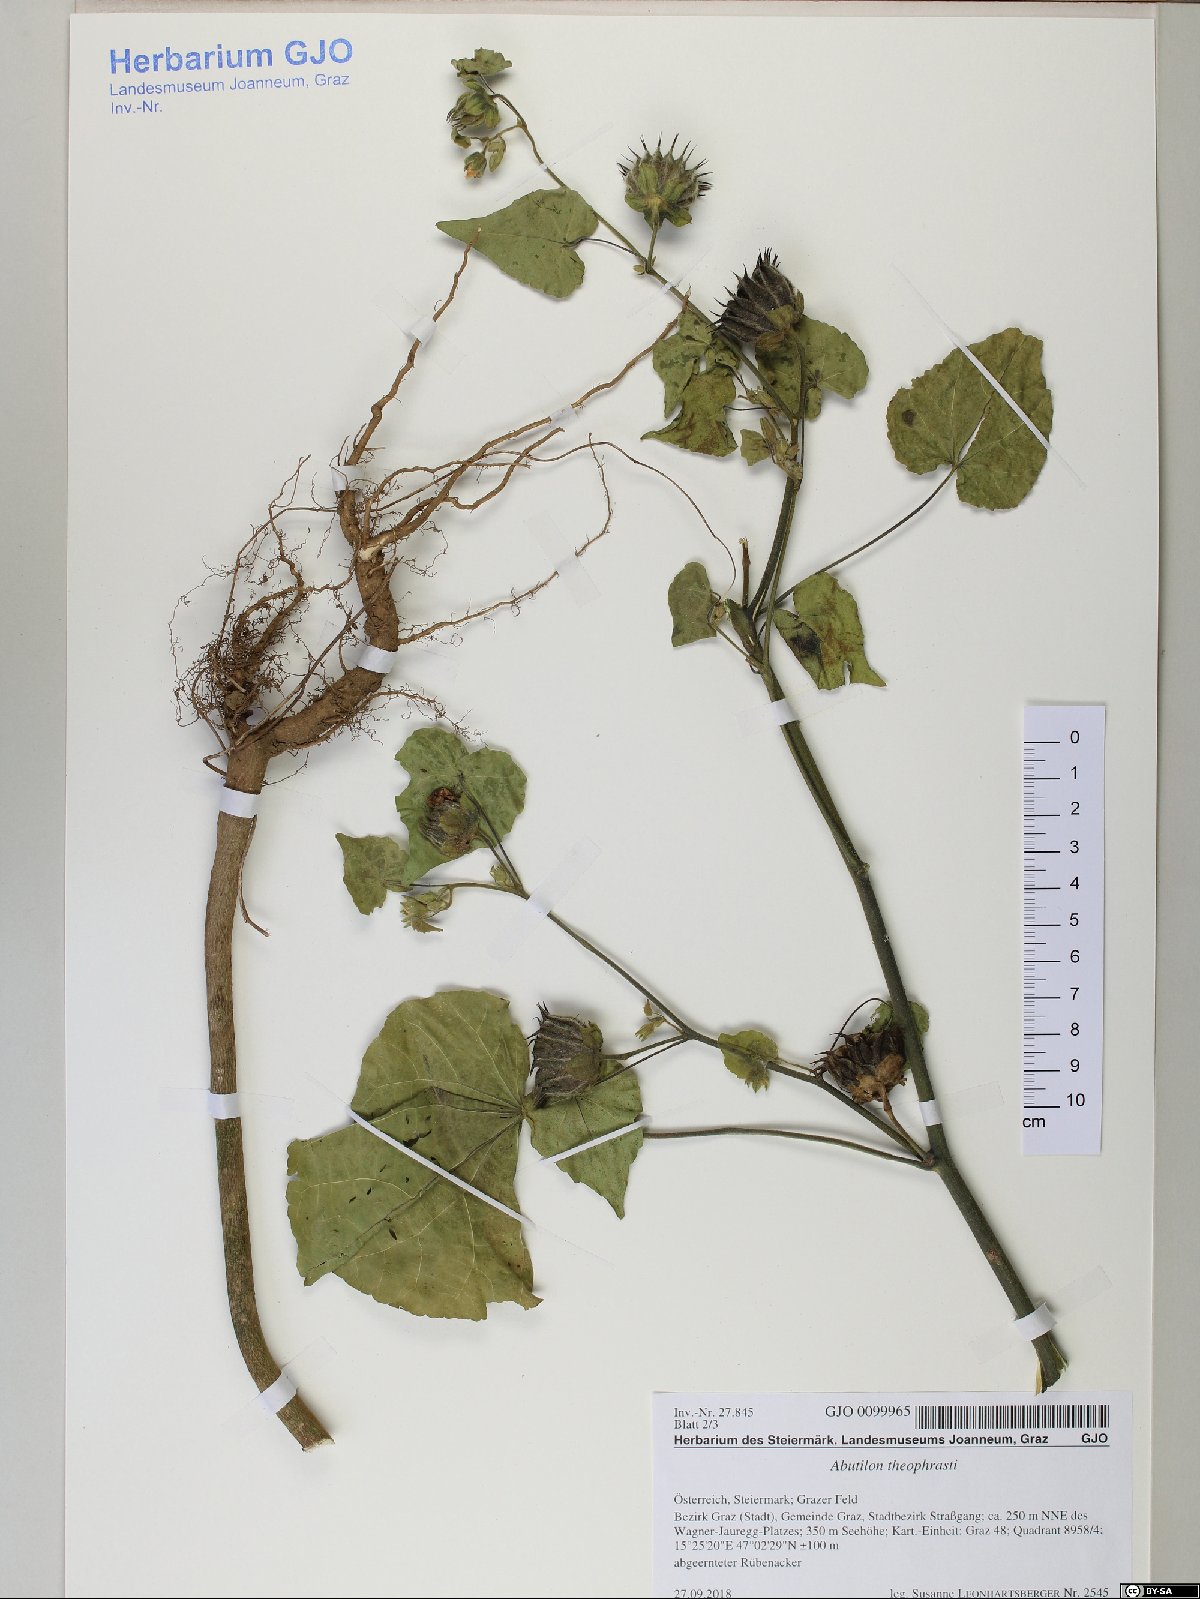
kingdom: Plantae
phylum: Tracheophyta
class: Magnoliopsida
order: Rosales
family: Rhamnaceae
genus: Frangula
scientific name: Frangula alnus
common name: Alder buckthorn
